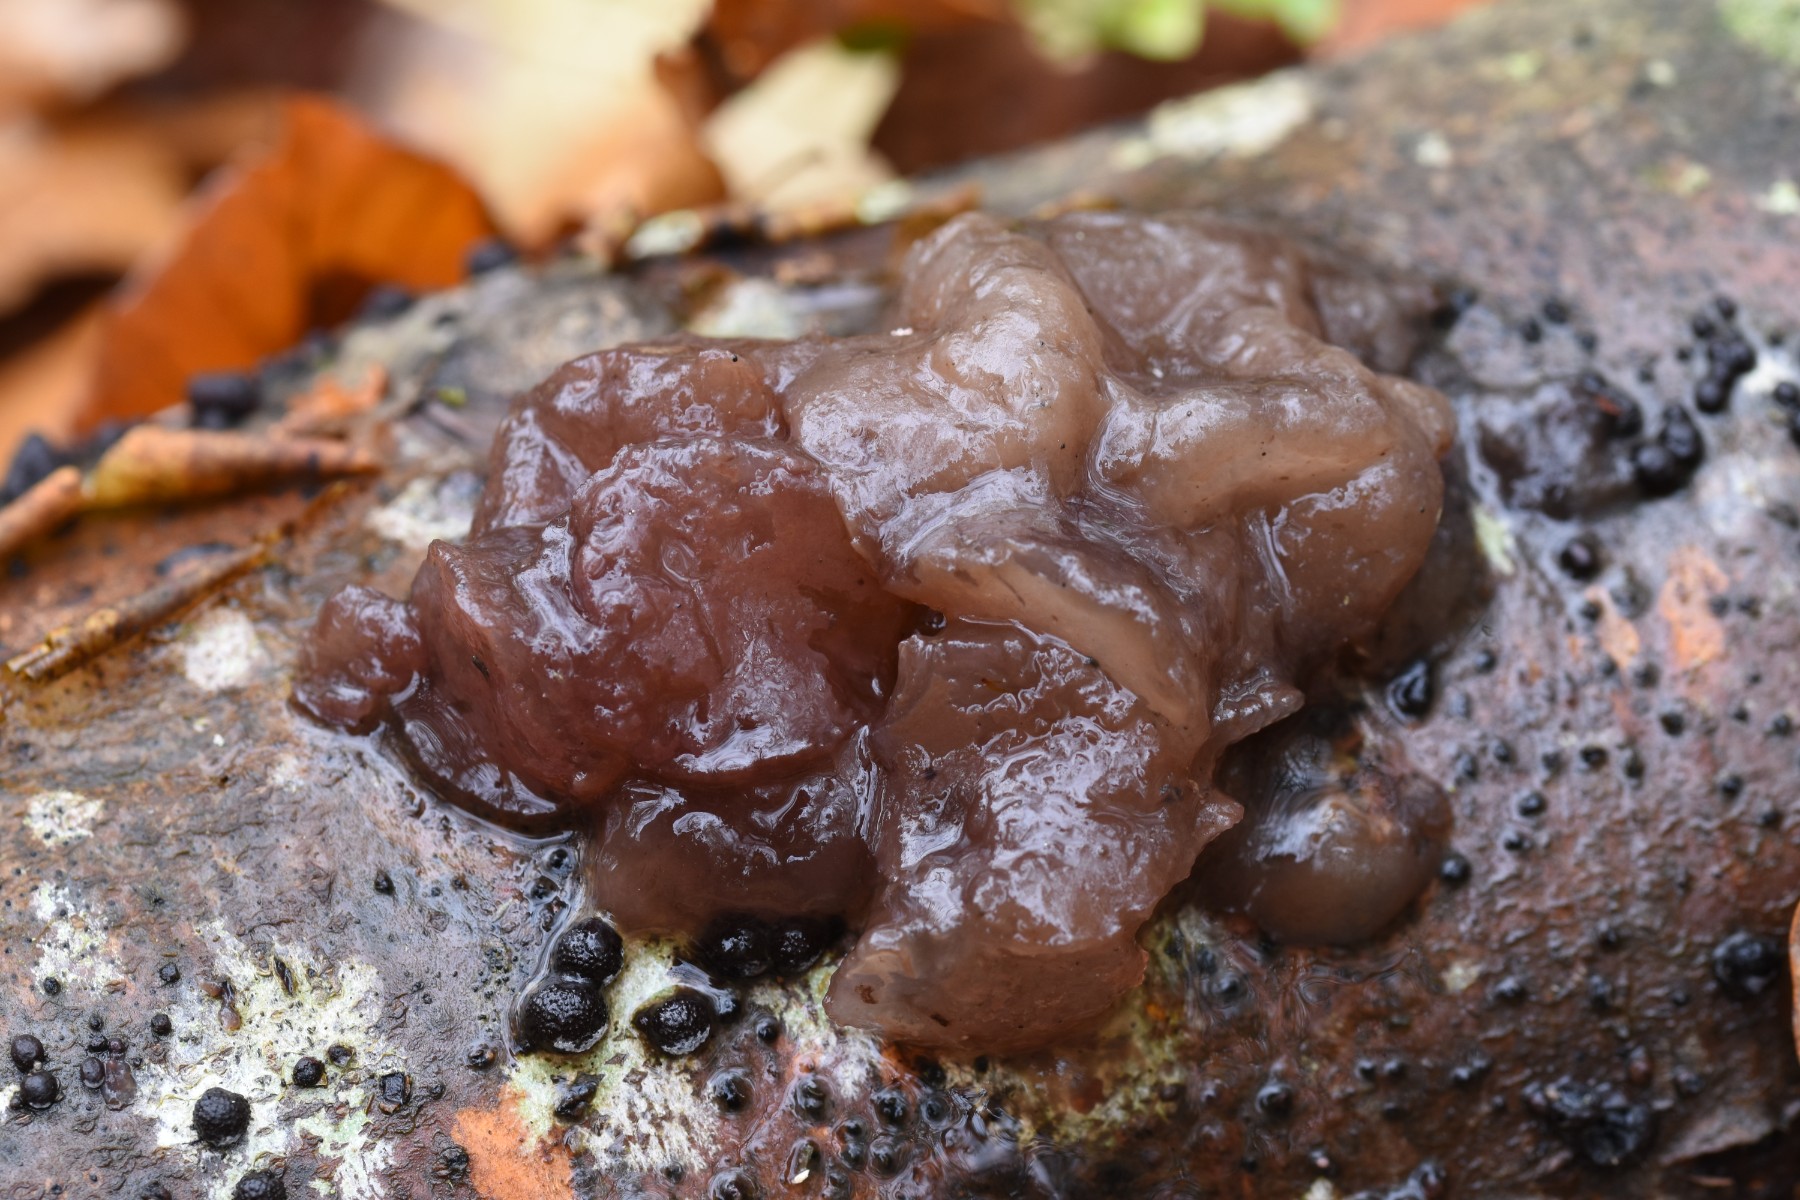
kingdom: Fungi
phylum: Ascomycota
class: Leotiomycetes
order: Helotiales
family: Gelatinodiscaceae
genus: Neobulgaria
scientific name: Neobulgaria pura
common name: bleg bævreskive
